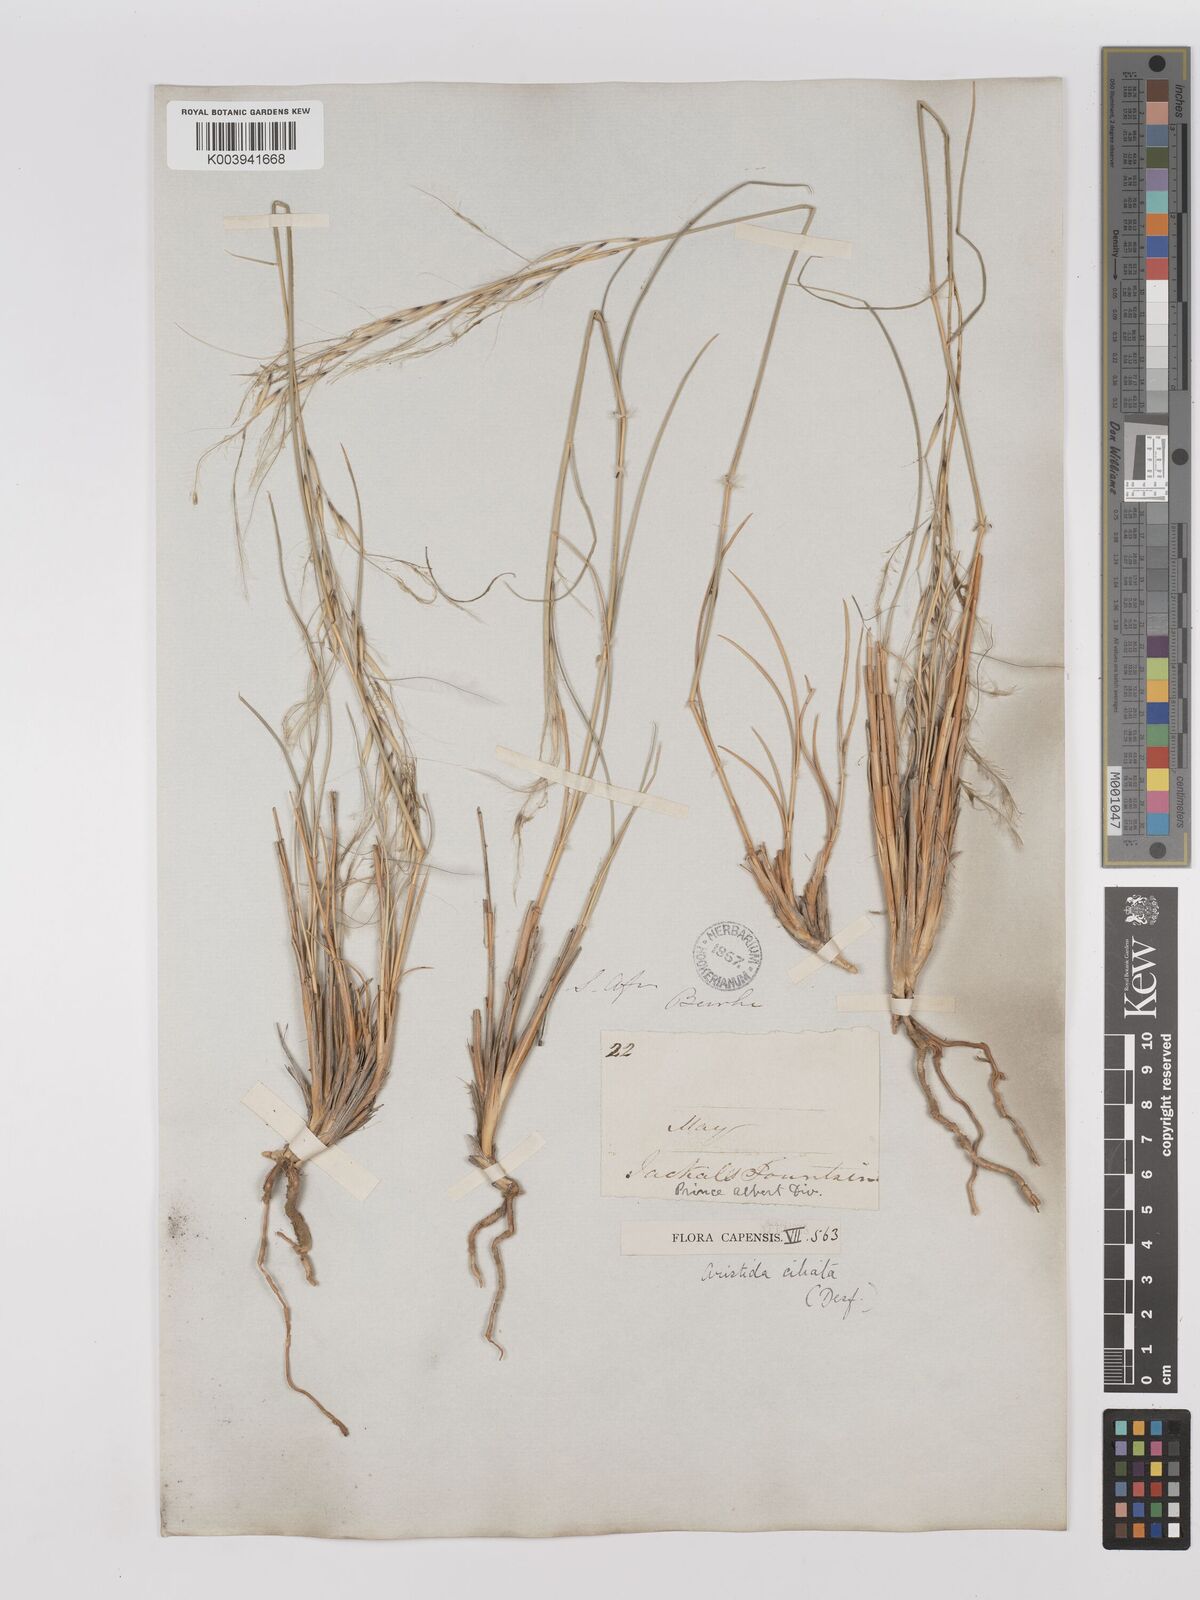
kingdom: Plantae
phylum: Tracheophyta
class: Liliopsida
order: Poales
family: Poaceae
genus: Stipagrostis
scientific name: Stipagrostis ciliata
